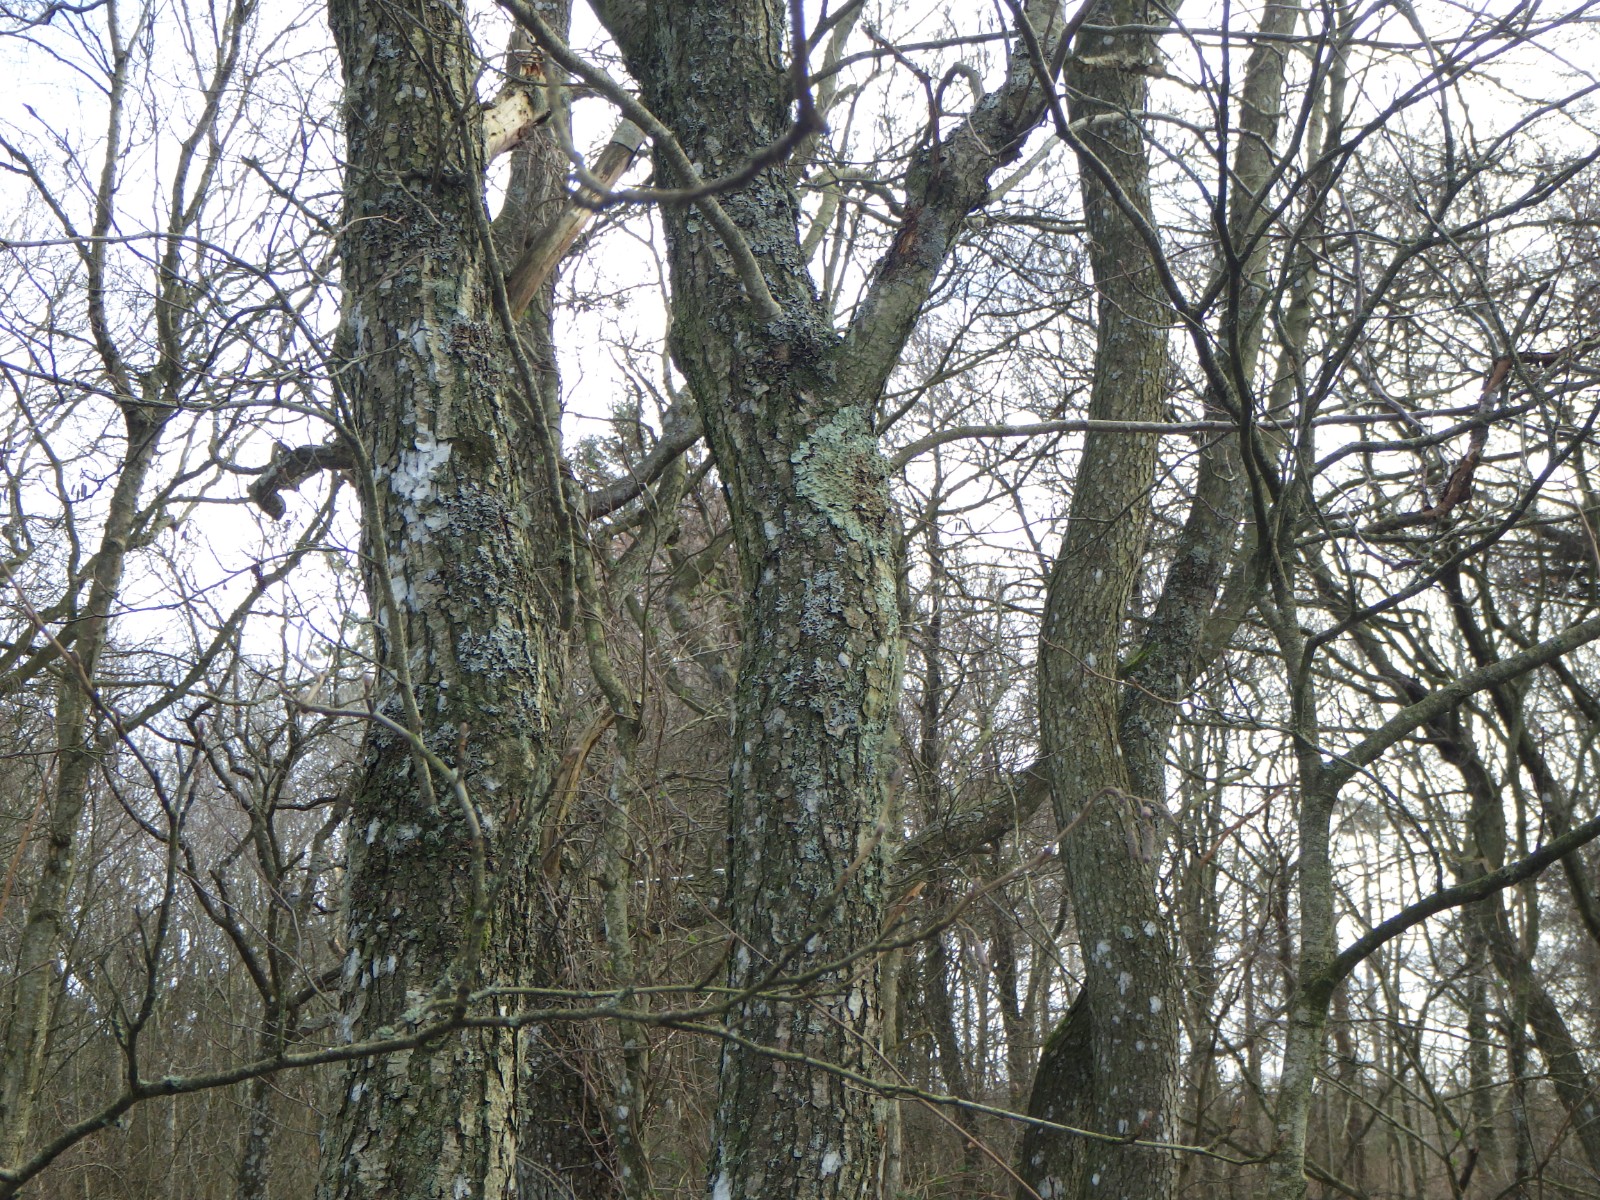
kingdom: Fungi
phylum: Ascomycota
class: Lecanoromycetes
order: Lecanorales
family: Parmeliaceae
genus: Flavoparmelia
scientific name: Flavoparmelia caperata
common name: gulgrøn skållav
